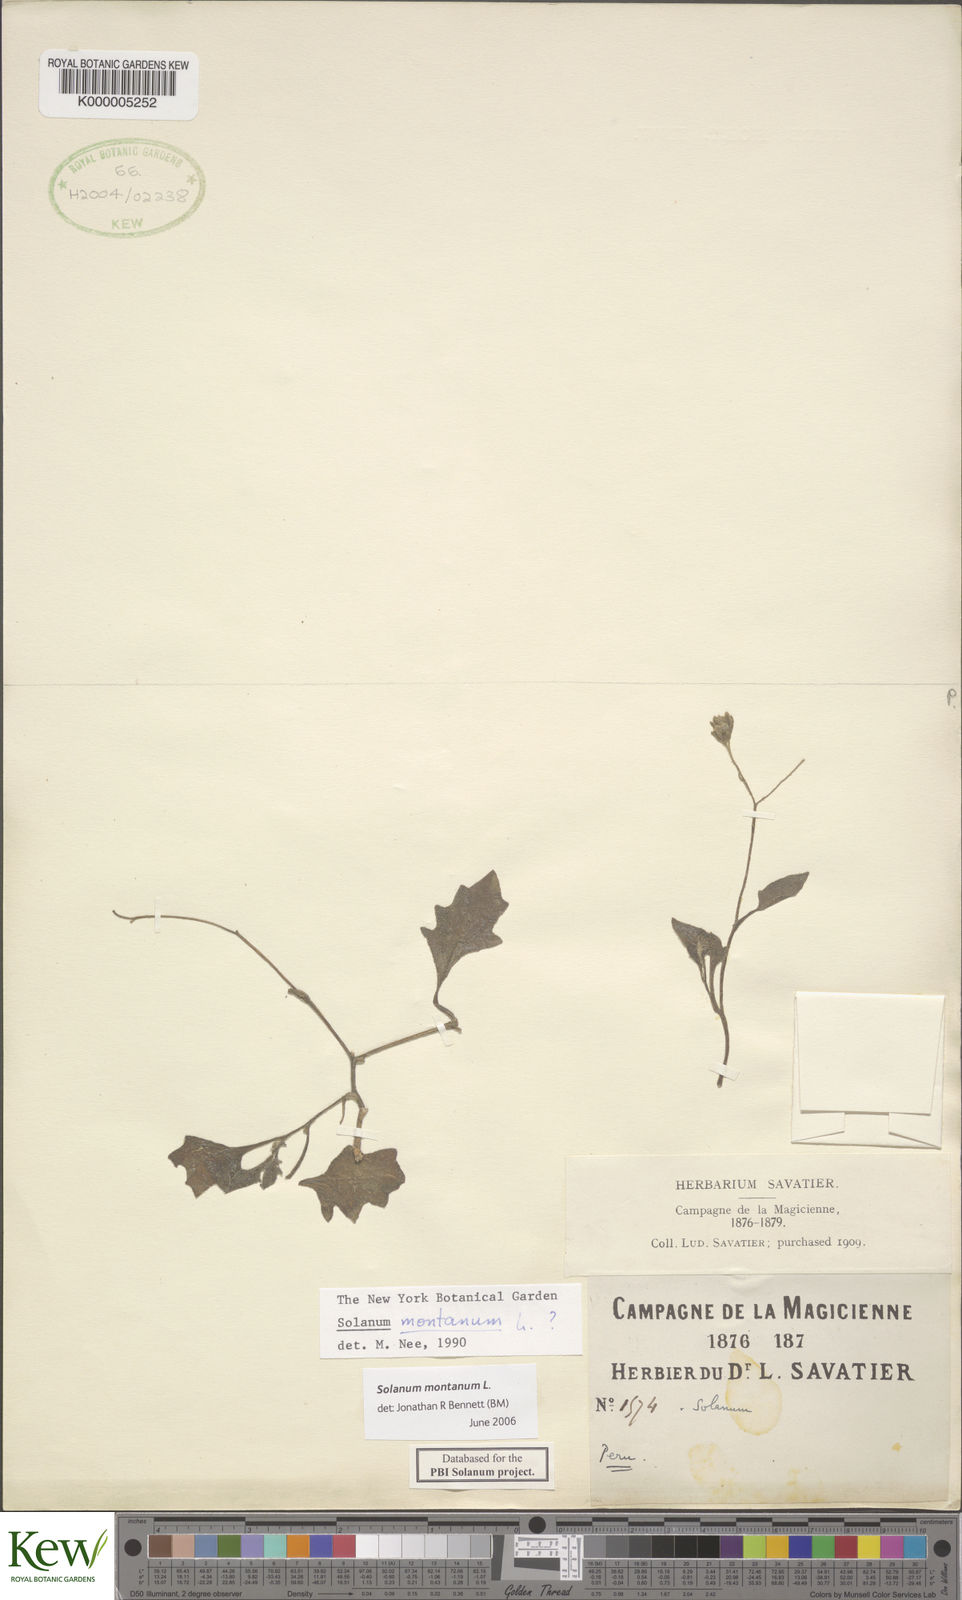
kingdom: Plantae
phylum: Tracheophyta
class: Magnoliopsida
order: Solanales
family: Solanaceae
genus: Solanum
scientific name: Solanum montanum
